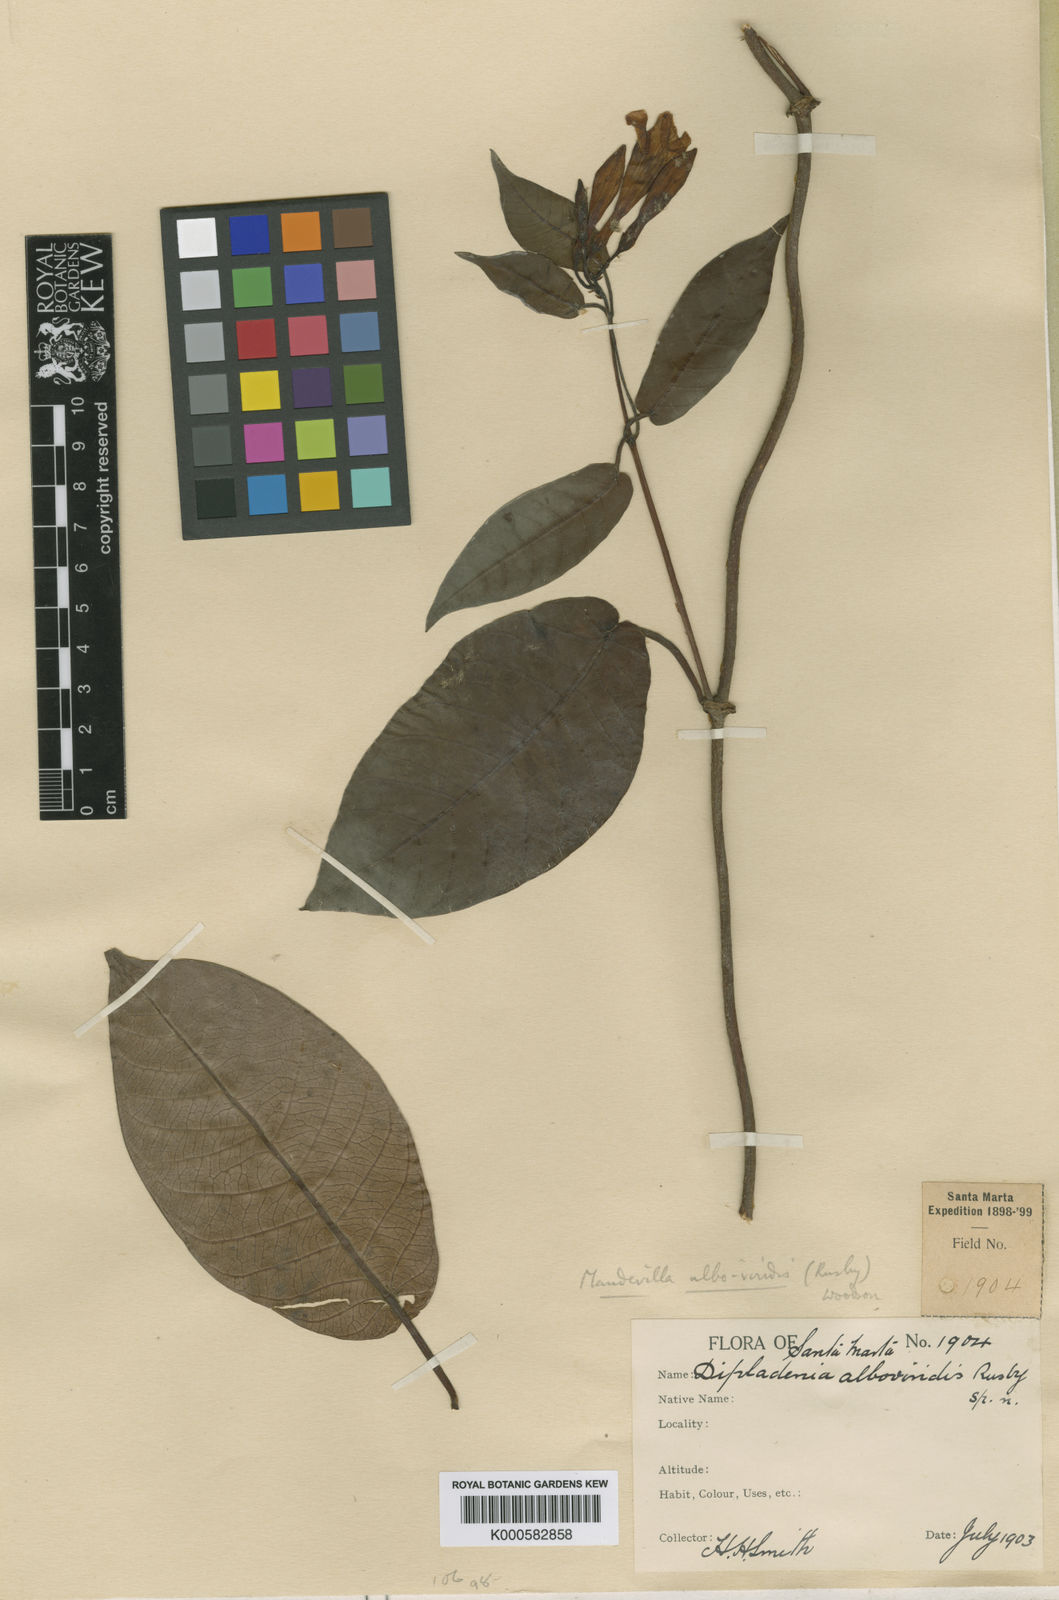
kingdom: Plantae
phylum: Tracheophyta
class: Magnoliopsida
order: Gentianales
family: Apocynaceae
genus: Mandevilla
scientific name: Mandevilla alboviridis
